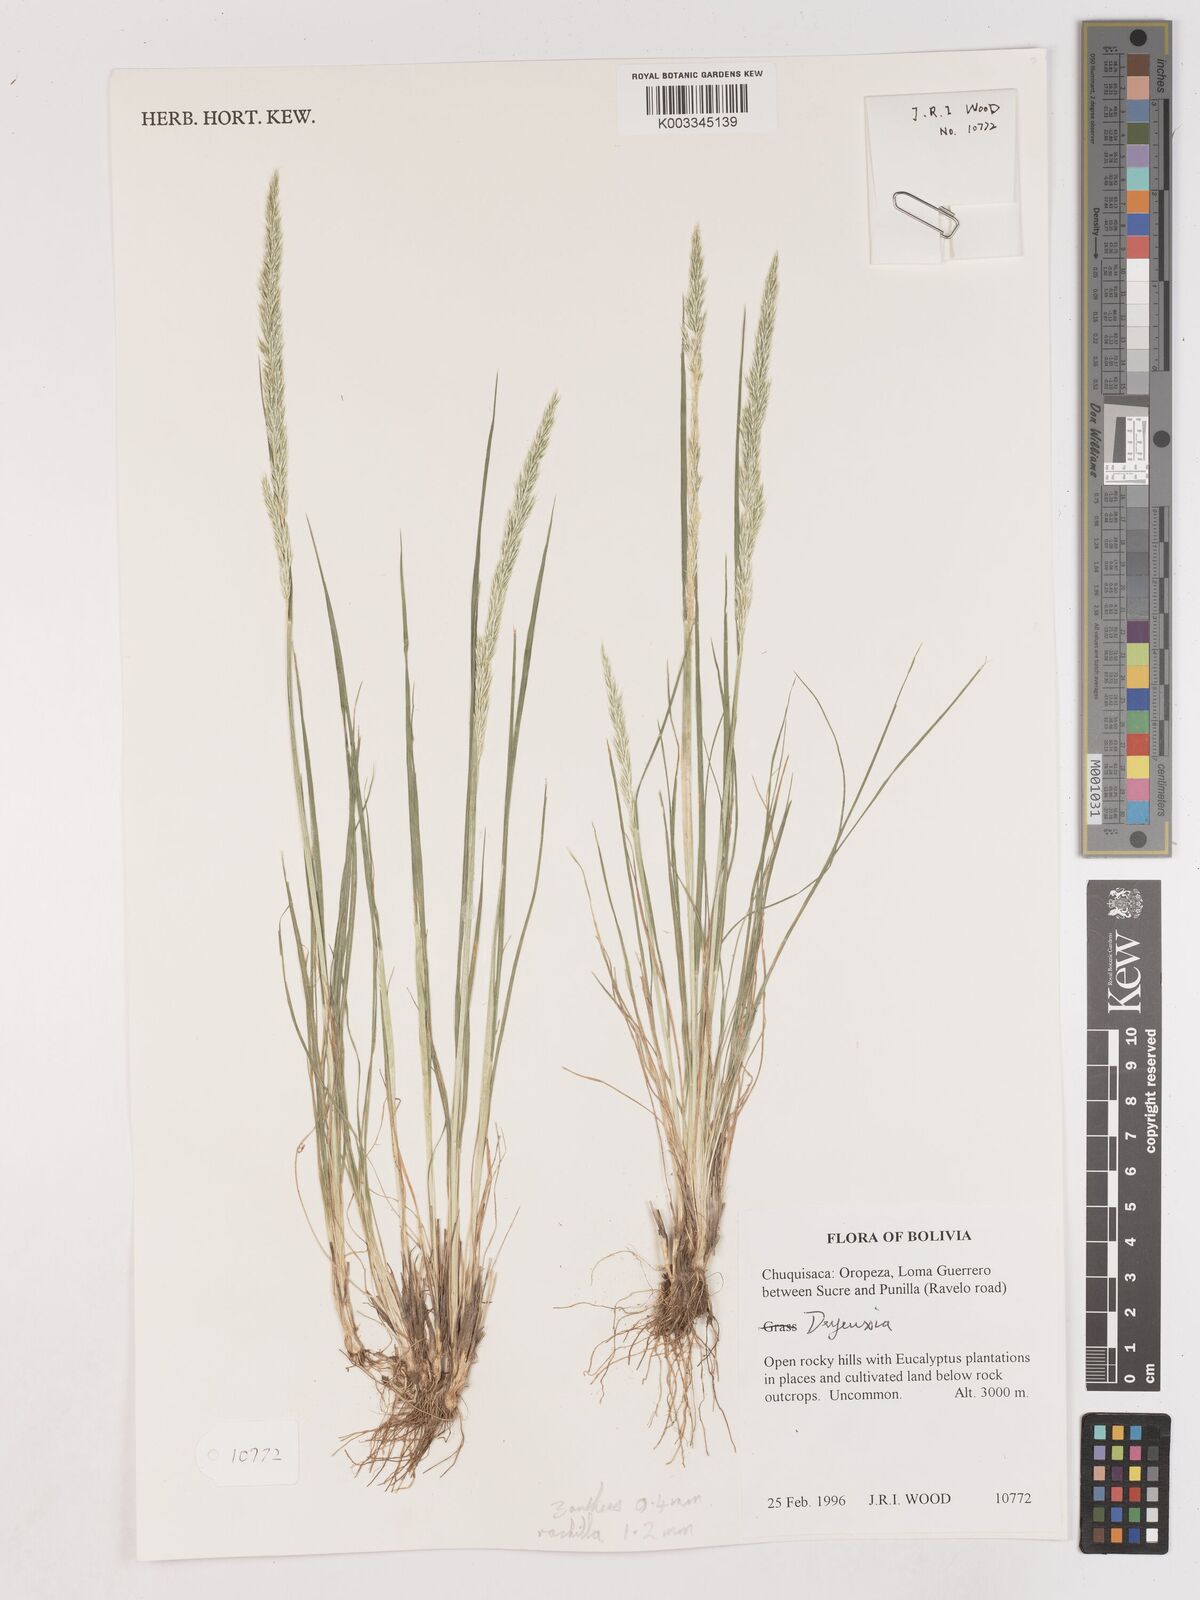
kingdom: Plantae
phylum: Tracheophyta
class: Liliopsida
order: Poales
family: Poaceae
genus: Calamagrostis
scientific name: Calamagrostis
